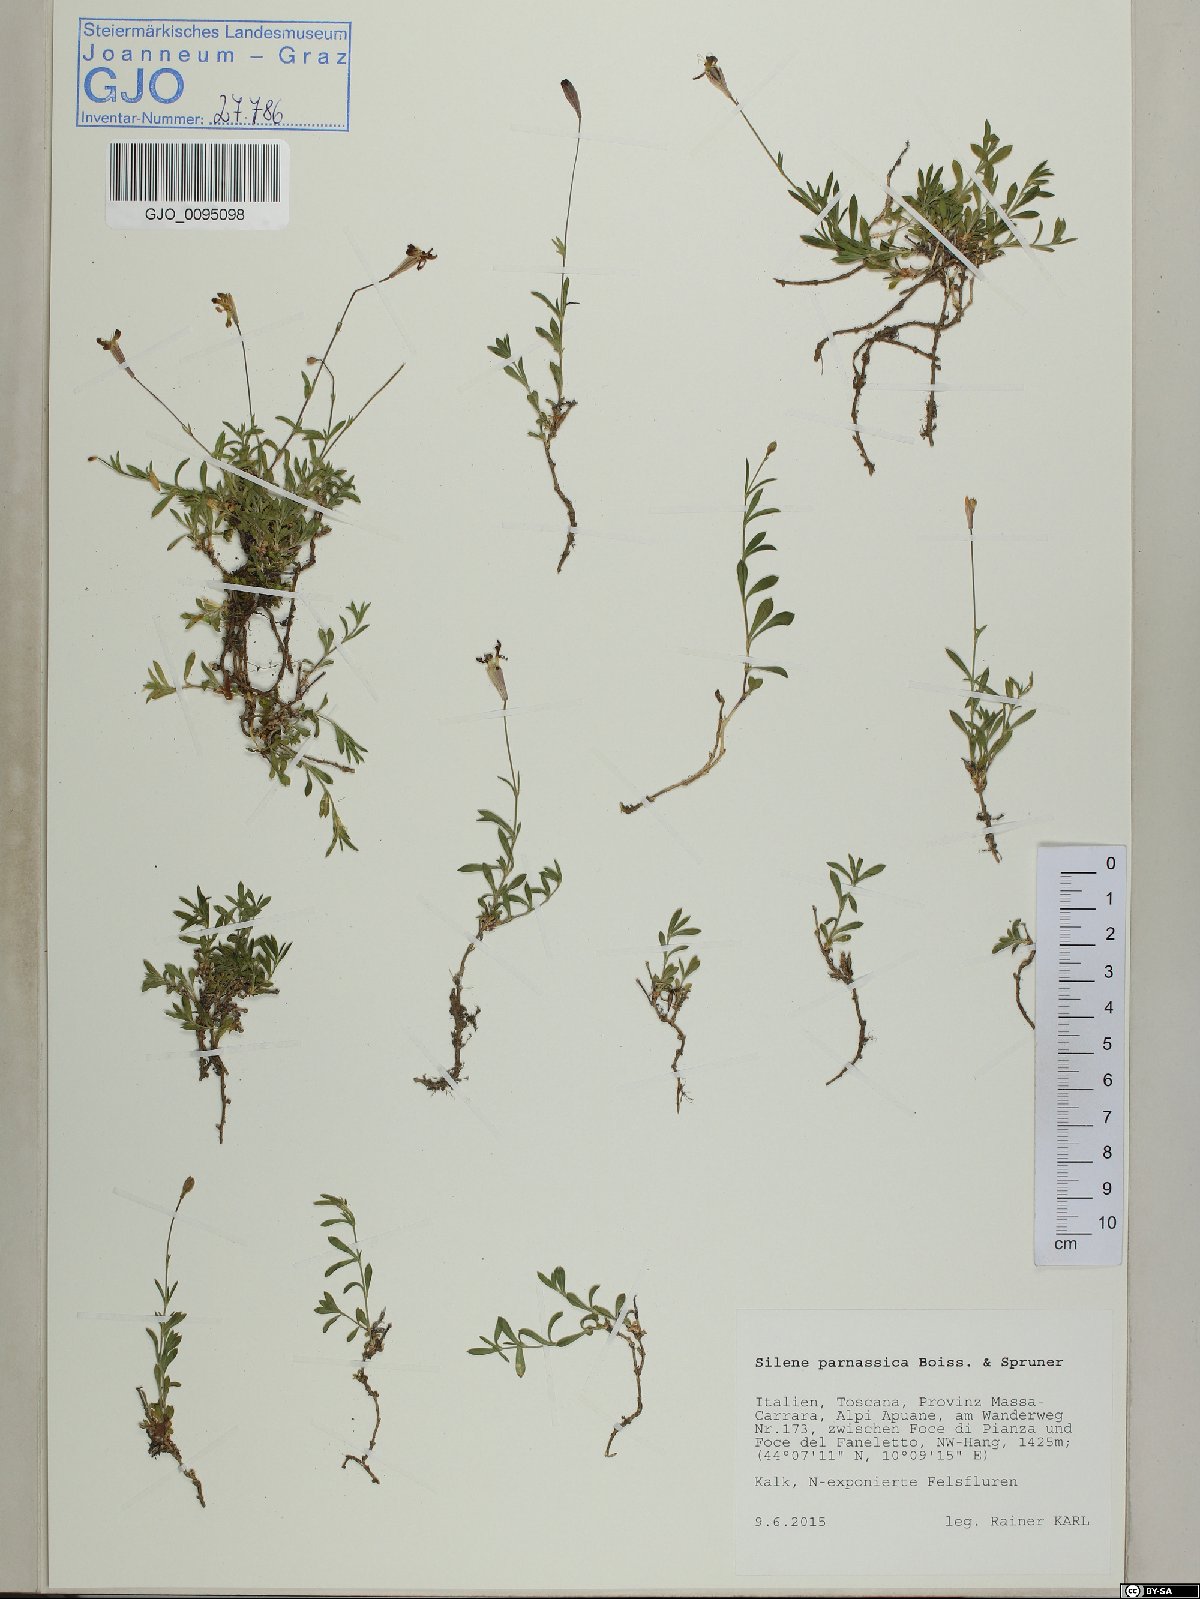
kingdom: Plantae
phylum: Tracheophyta
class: Magnoliopsida
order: Caryophyllales
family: Caryophyllaceae
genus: Silene
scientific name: Silene parnassica
